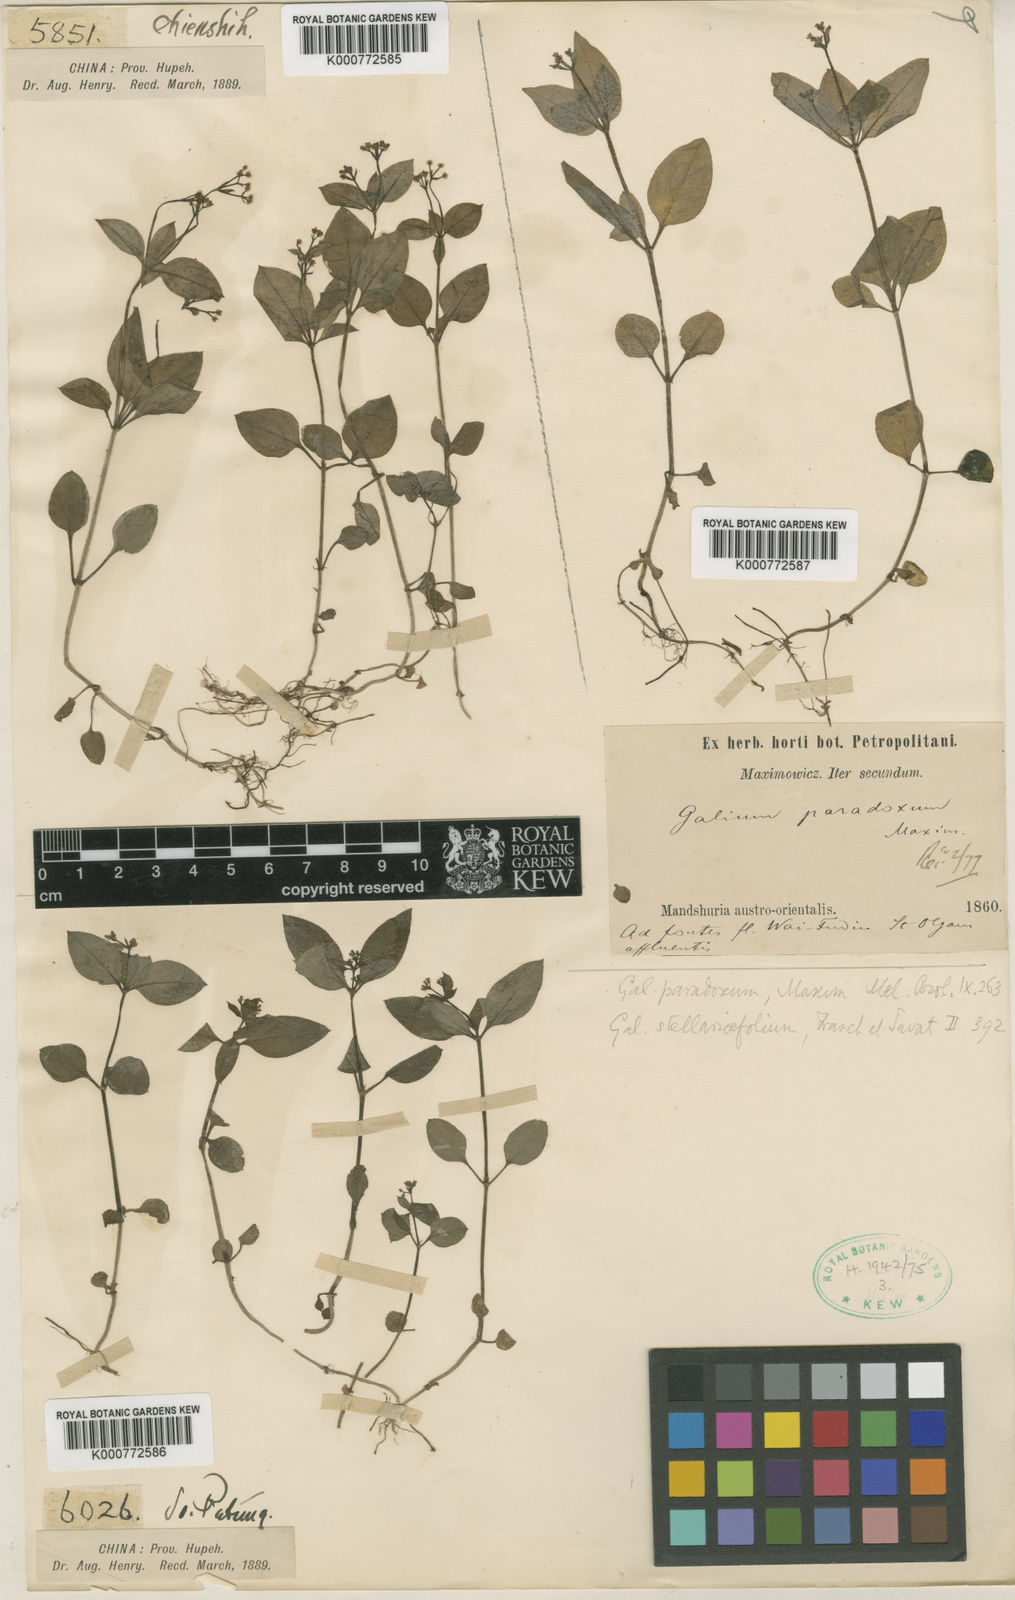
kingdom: Plantae
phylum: Tracheophyta
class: Magnoliopsida
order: Gentianales
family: Rubiaceae
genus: Pseudogalium
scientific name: Pseudogalium paradoxum
